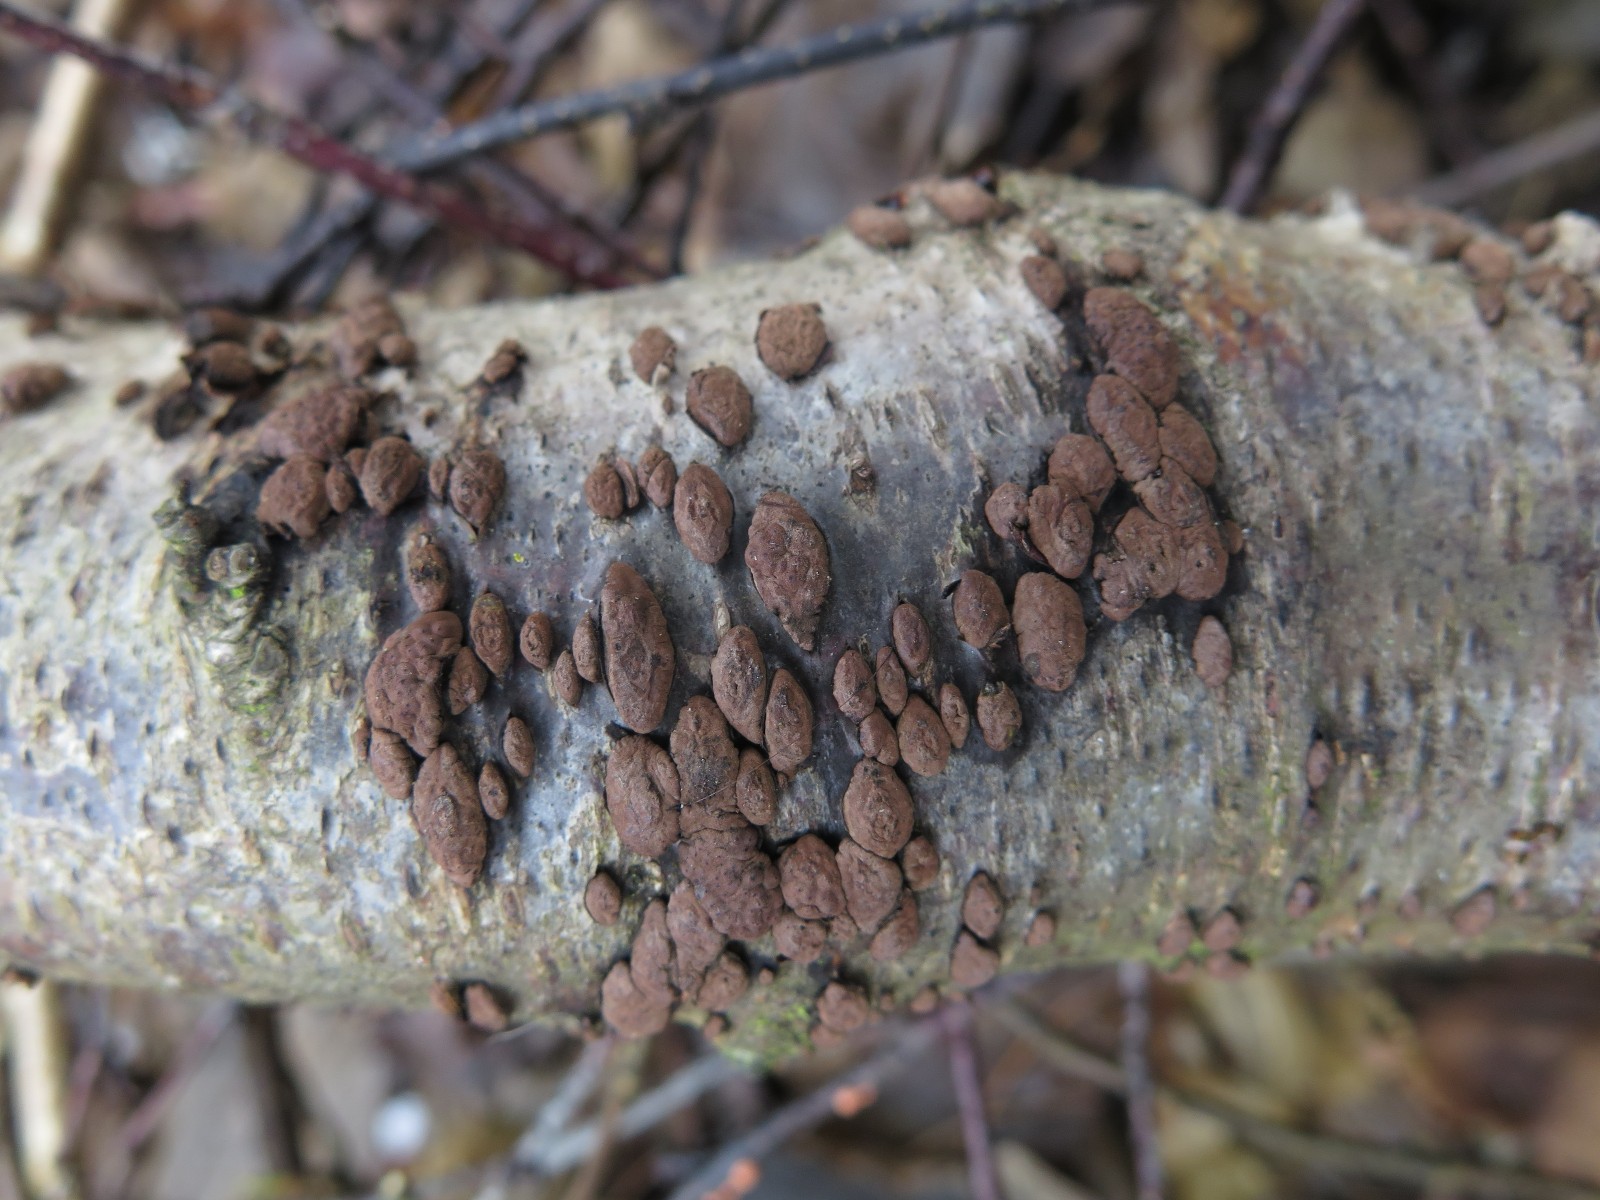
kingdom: Fungi
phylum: Ascomycota
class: Sordariomycetes
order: Xylariales
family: Hypoxylaceae
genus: Jackrogersella
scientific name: Jackrogersella multiformis
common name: foranderlig kulbær
